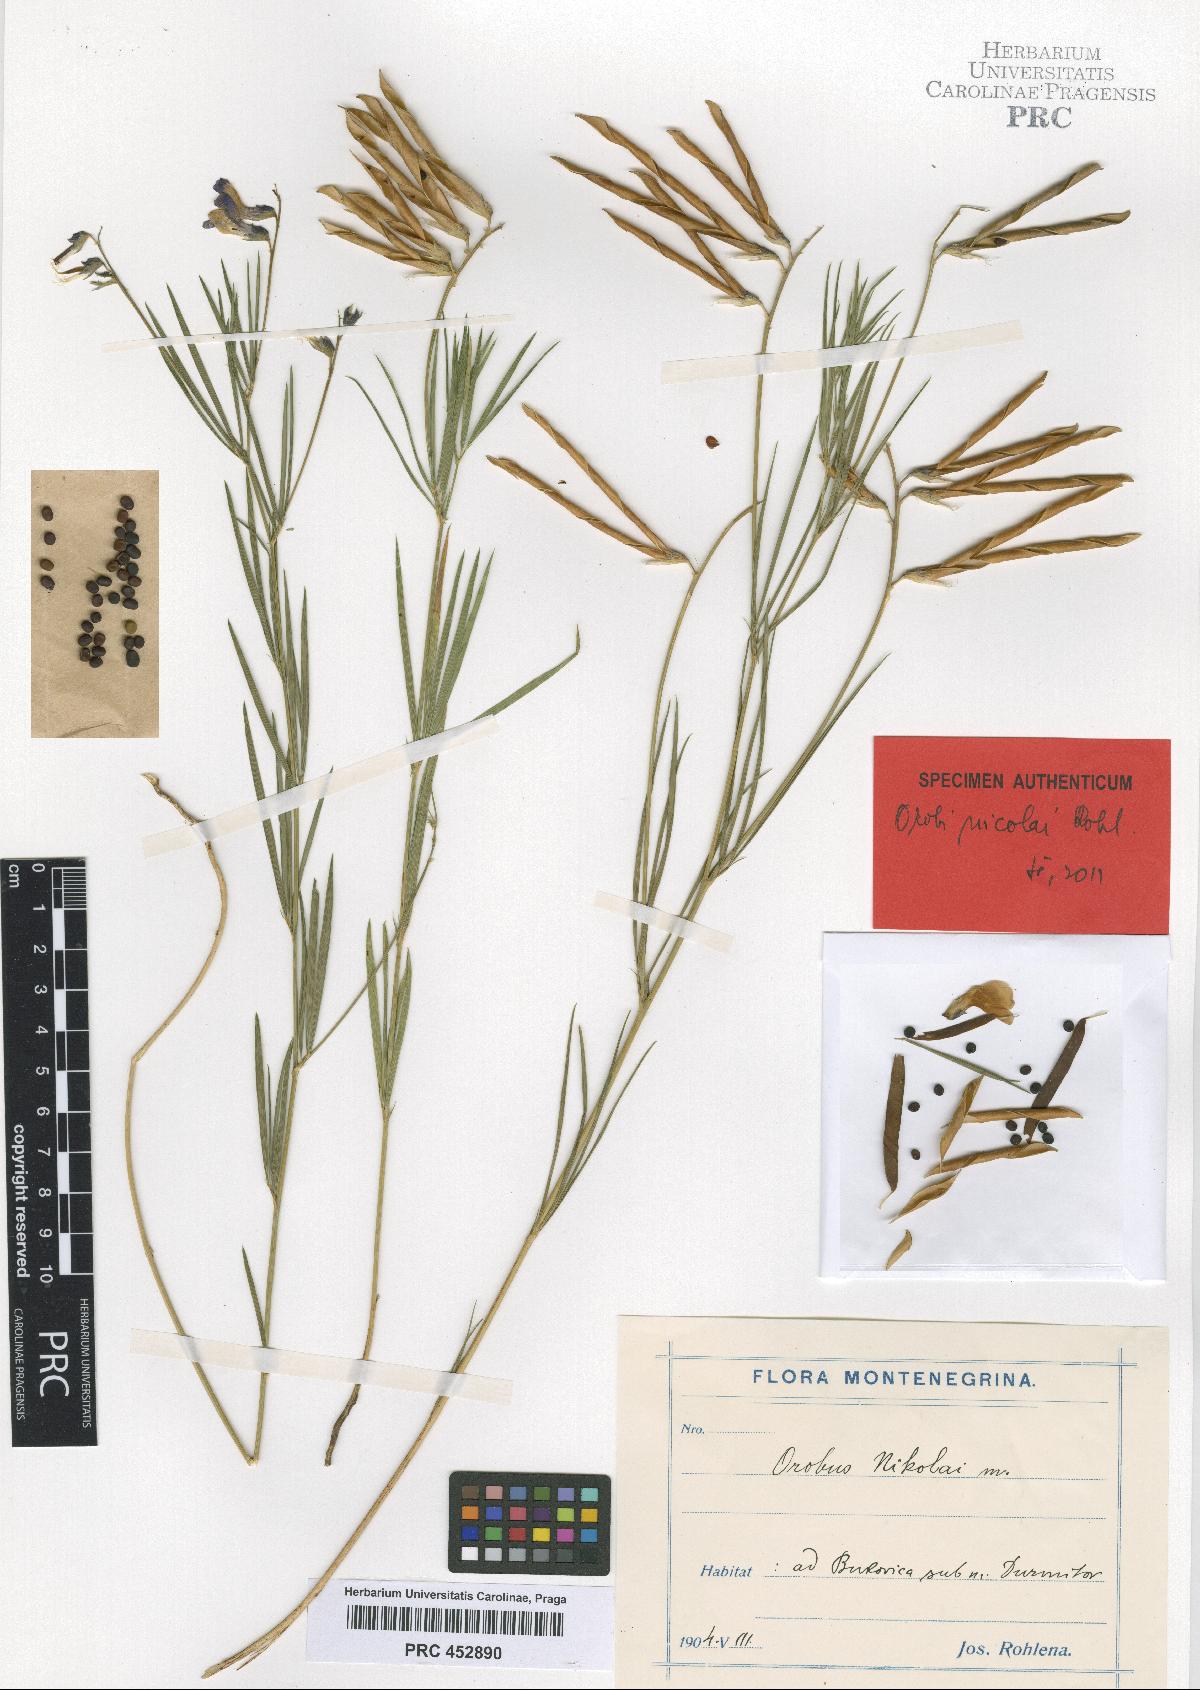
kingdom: Plantae
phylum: Tracheophyta
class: Magnoliopsida
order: Fabales
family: Fabaceae
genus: Lathyrus
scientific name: Lathyrus bauhini
